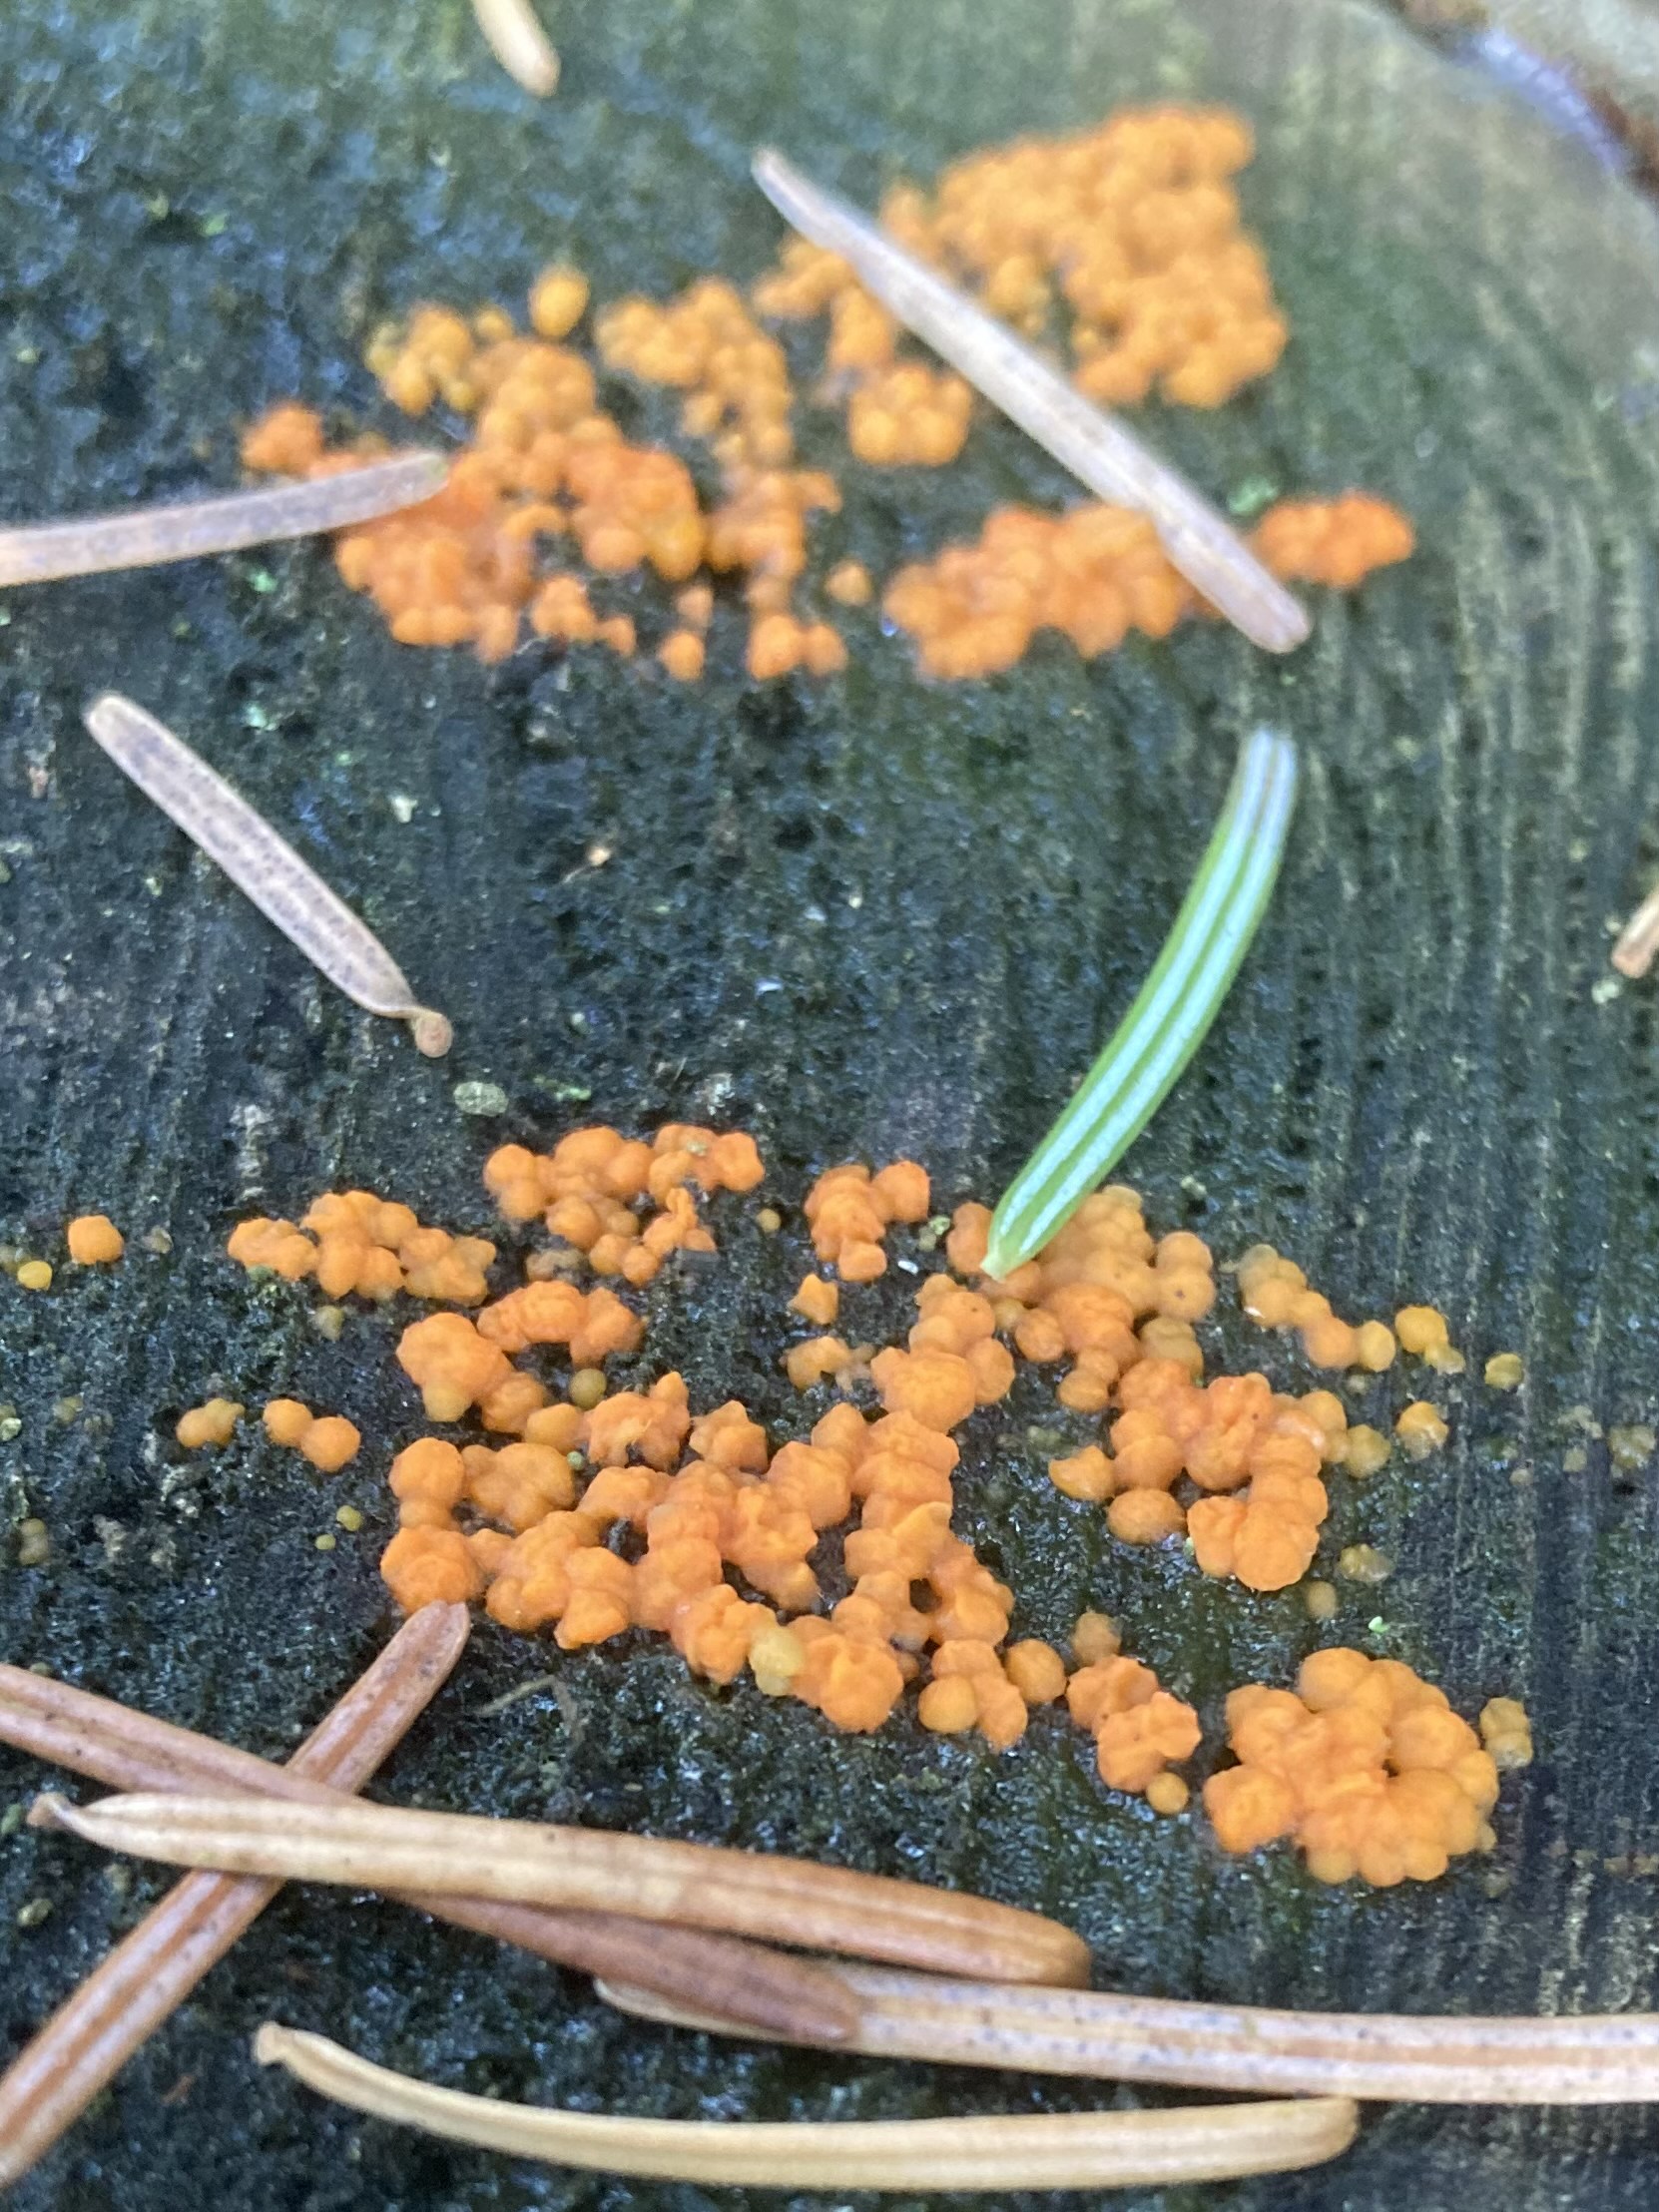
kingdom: Fungi
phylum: Basidiomycota
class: Dacrymycetes
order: Dacrymycetales
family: Dacrymycetaceae
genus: Dacrymyces
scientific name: Dacrymyces stillatus
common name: almindelig tåresvamp
